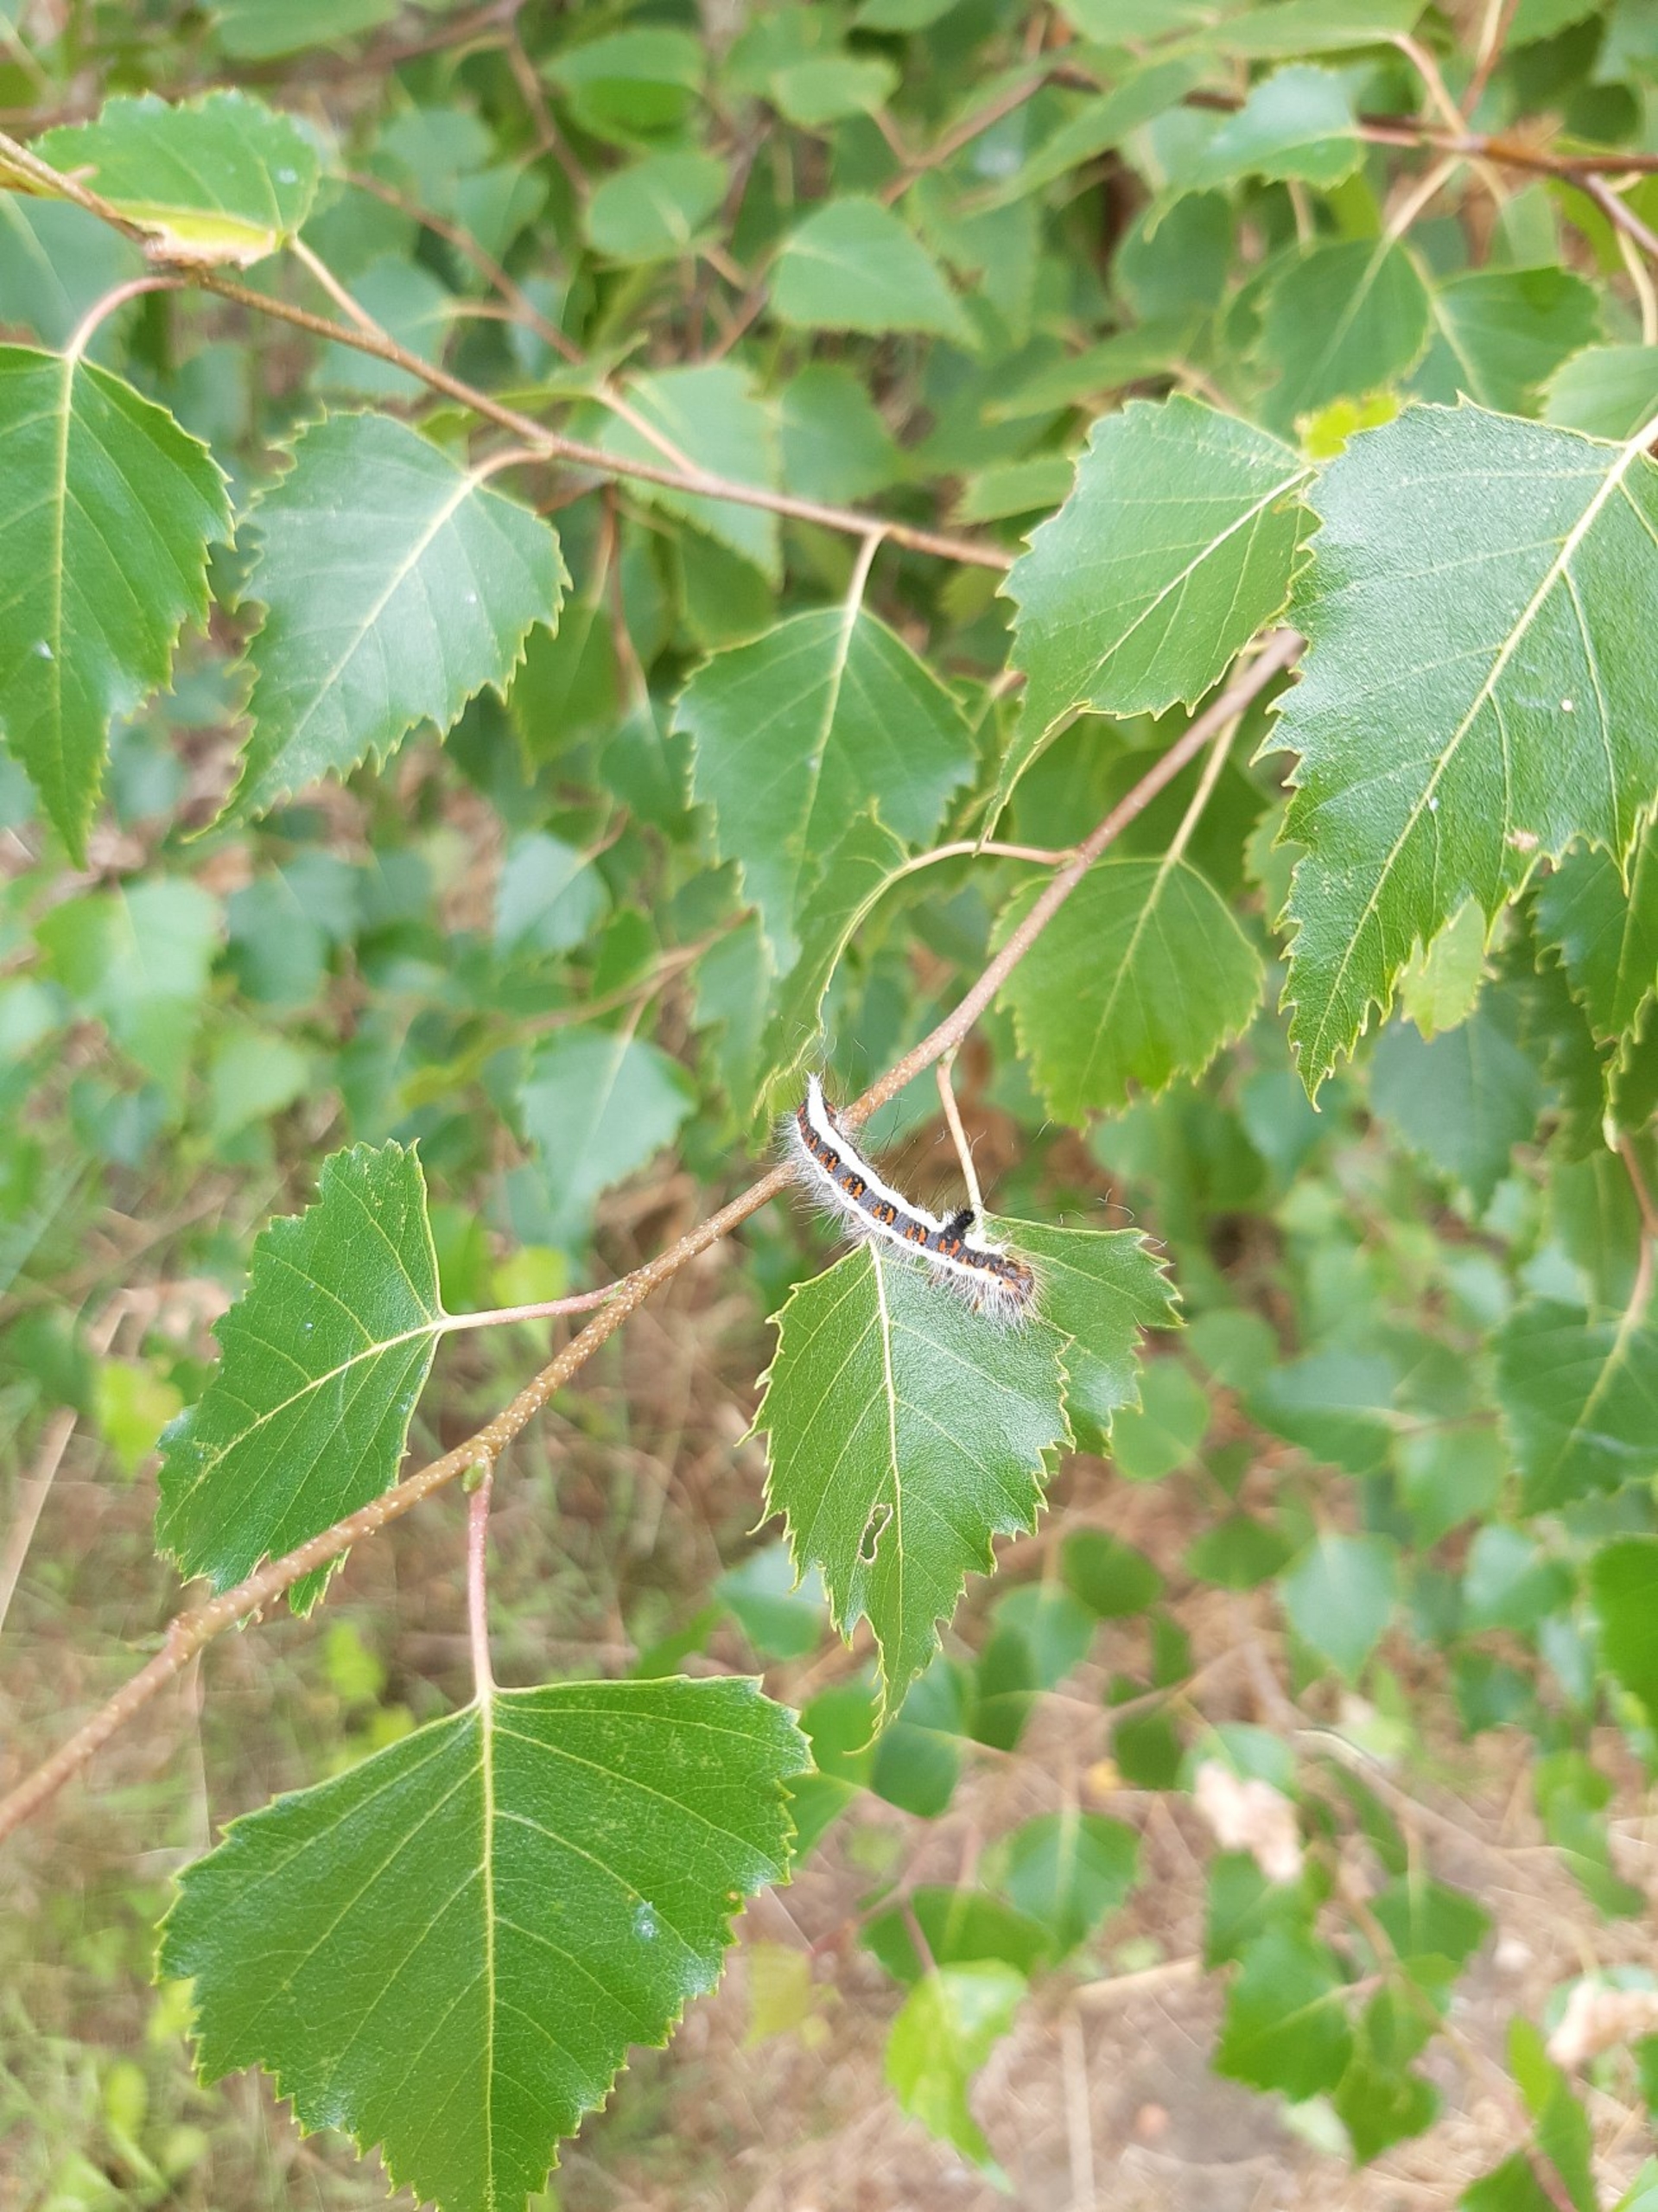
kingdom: Animalia
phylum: Arthropoda
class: Insecta
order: Lepidoptera
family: Noctuidae
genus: Acronicta
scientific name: Acronicta psi
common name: Psi-ugle
